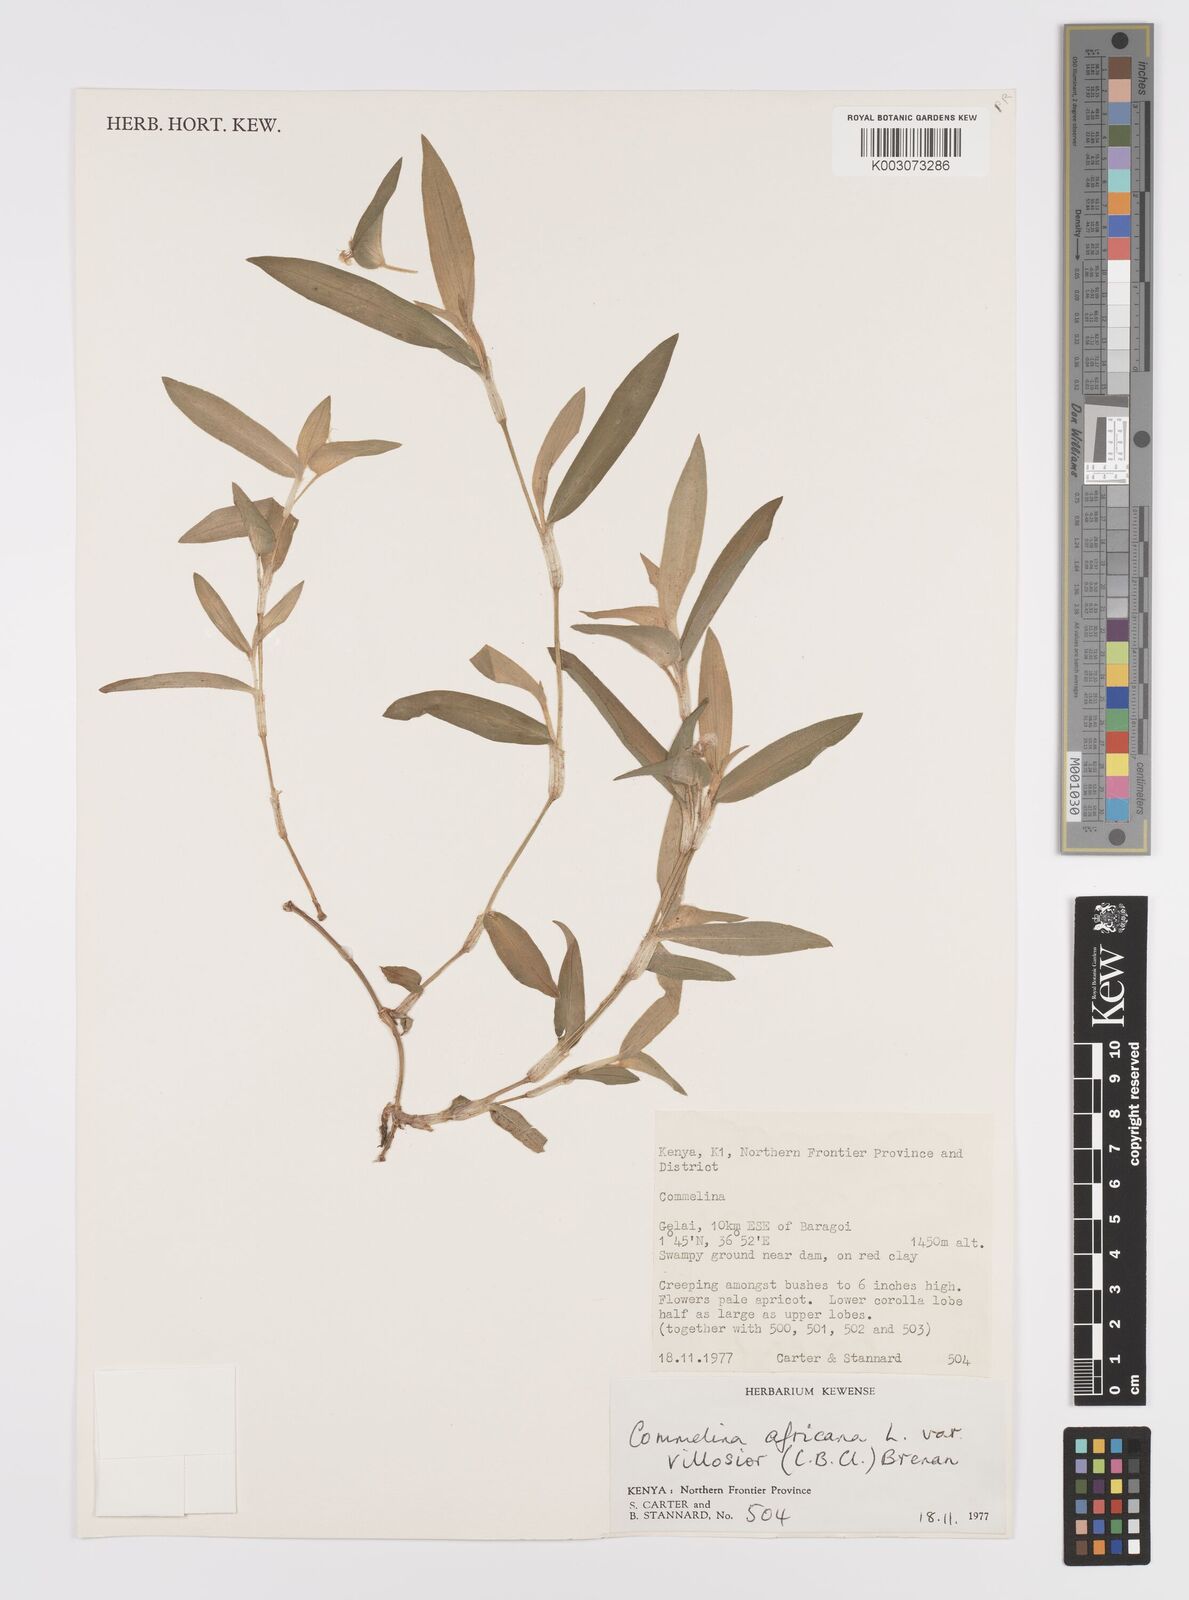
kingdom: Plantae
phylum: Tracheophyta
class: Liliopsida
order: Commelinales
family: Commelinaceae
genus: Commelina
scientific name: Commelina africana
